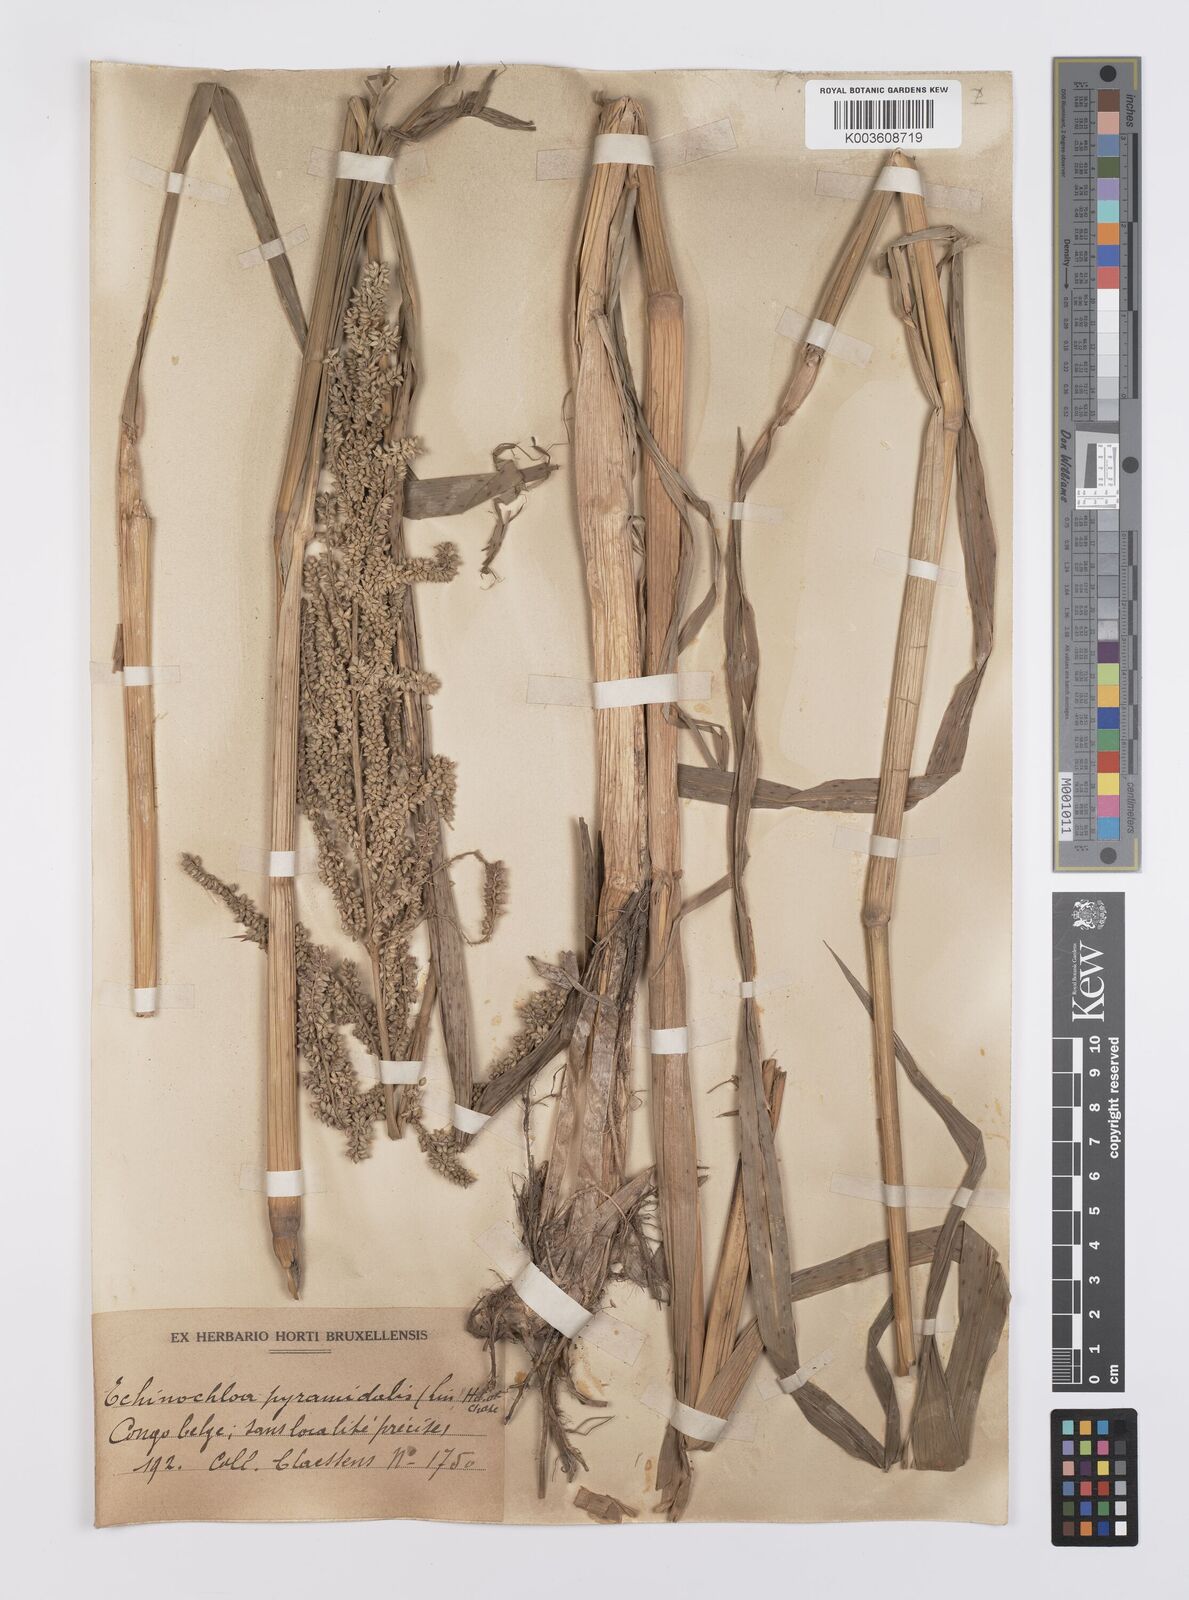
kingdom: Plantae
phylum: Tracheophyta
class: Liliopsida
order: Poales
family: Poaceae
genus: Echinochloa
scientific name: Echinochloa pyramidalis
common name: Antelope grass
